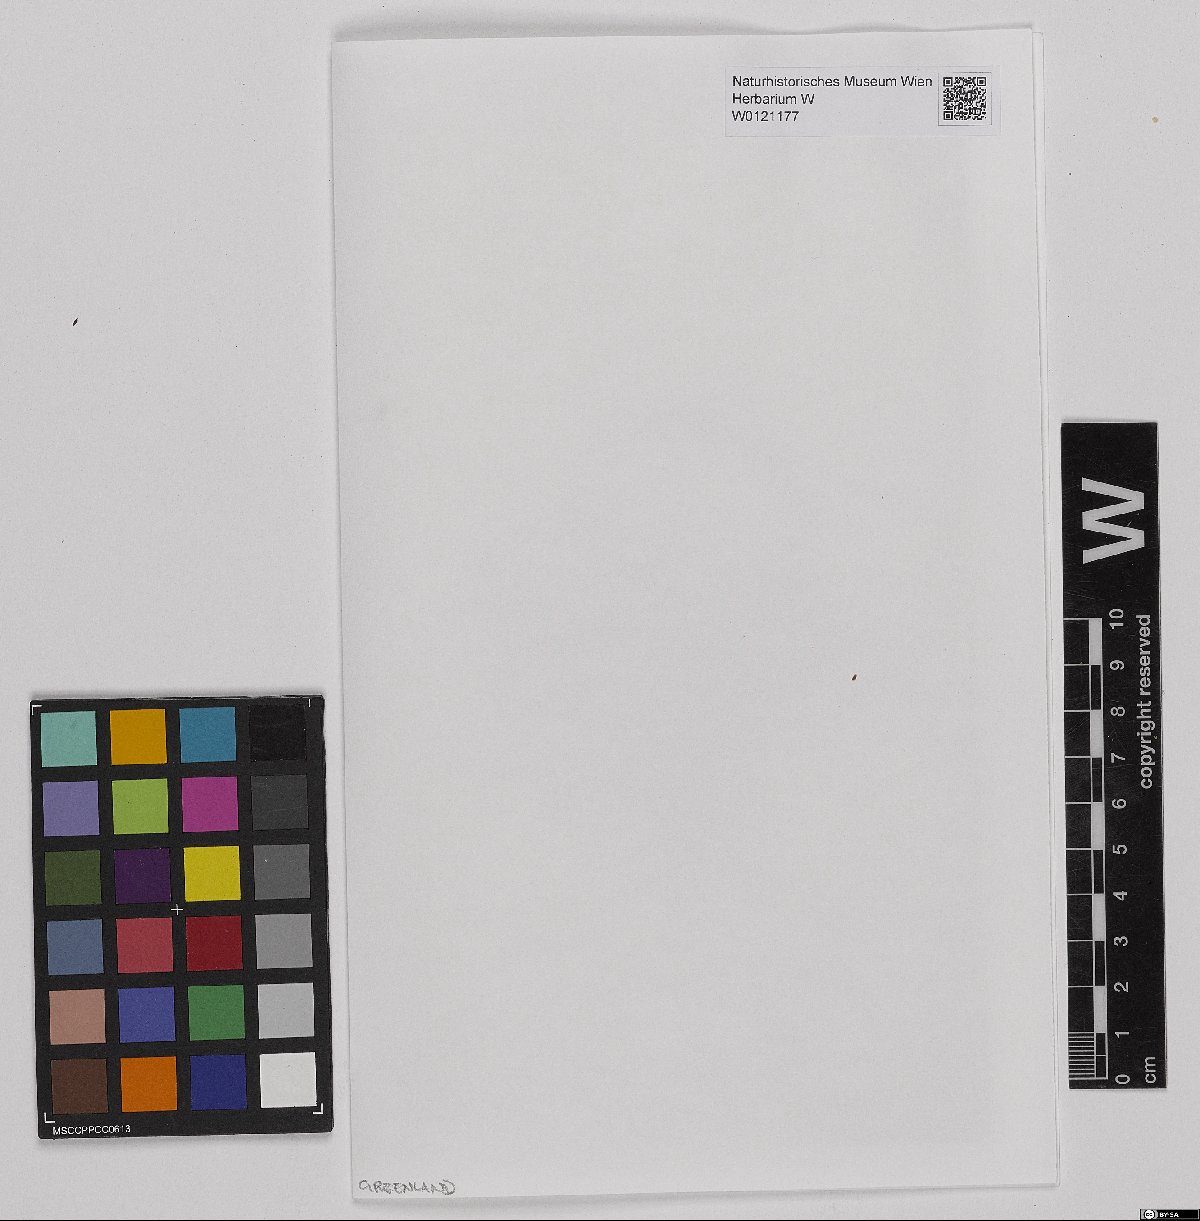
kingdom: Plantae
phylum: Bryophyta
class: Sphagnopsida
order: Sphagnales
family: Sphagnaceae
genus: Sphagnum
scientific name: Sphagnum capillifolium
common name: Small red peat moss
